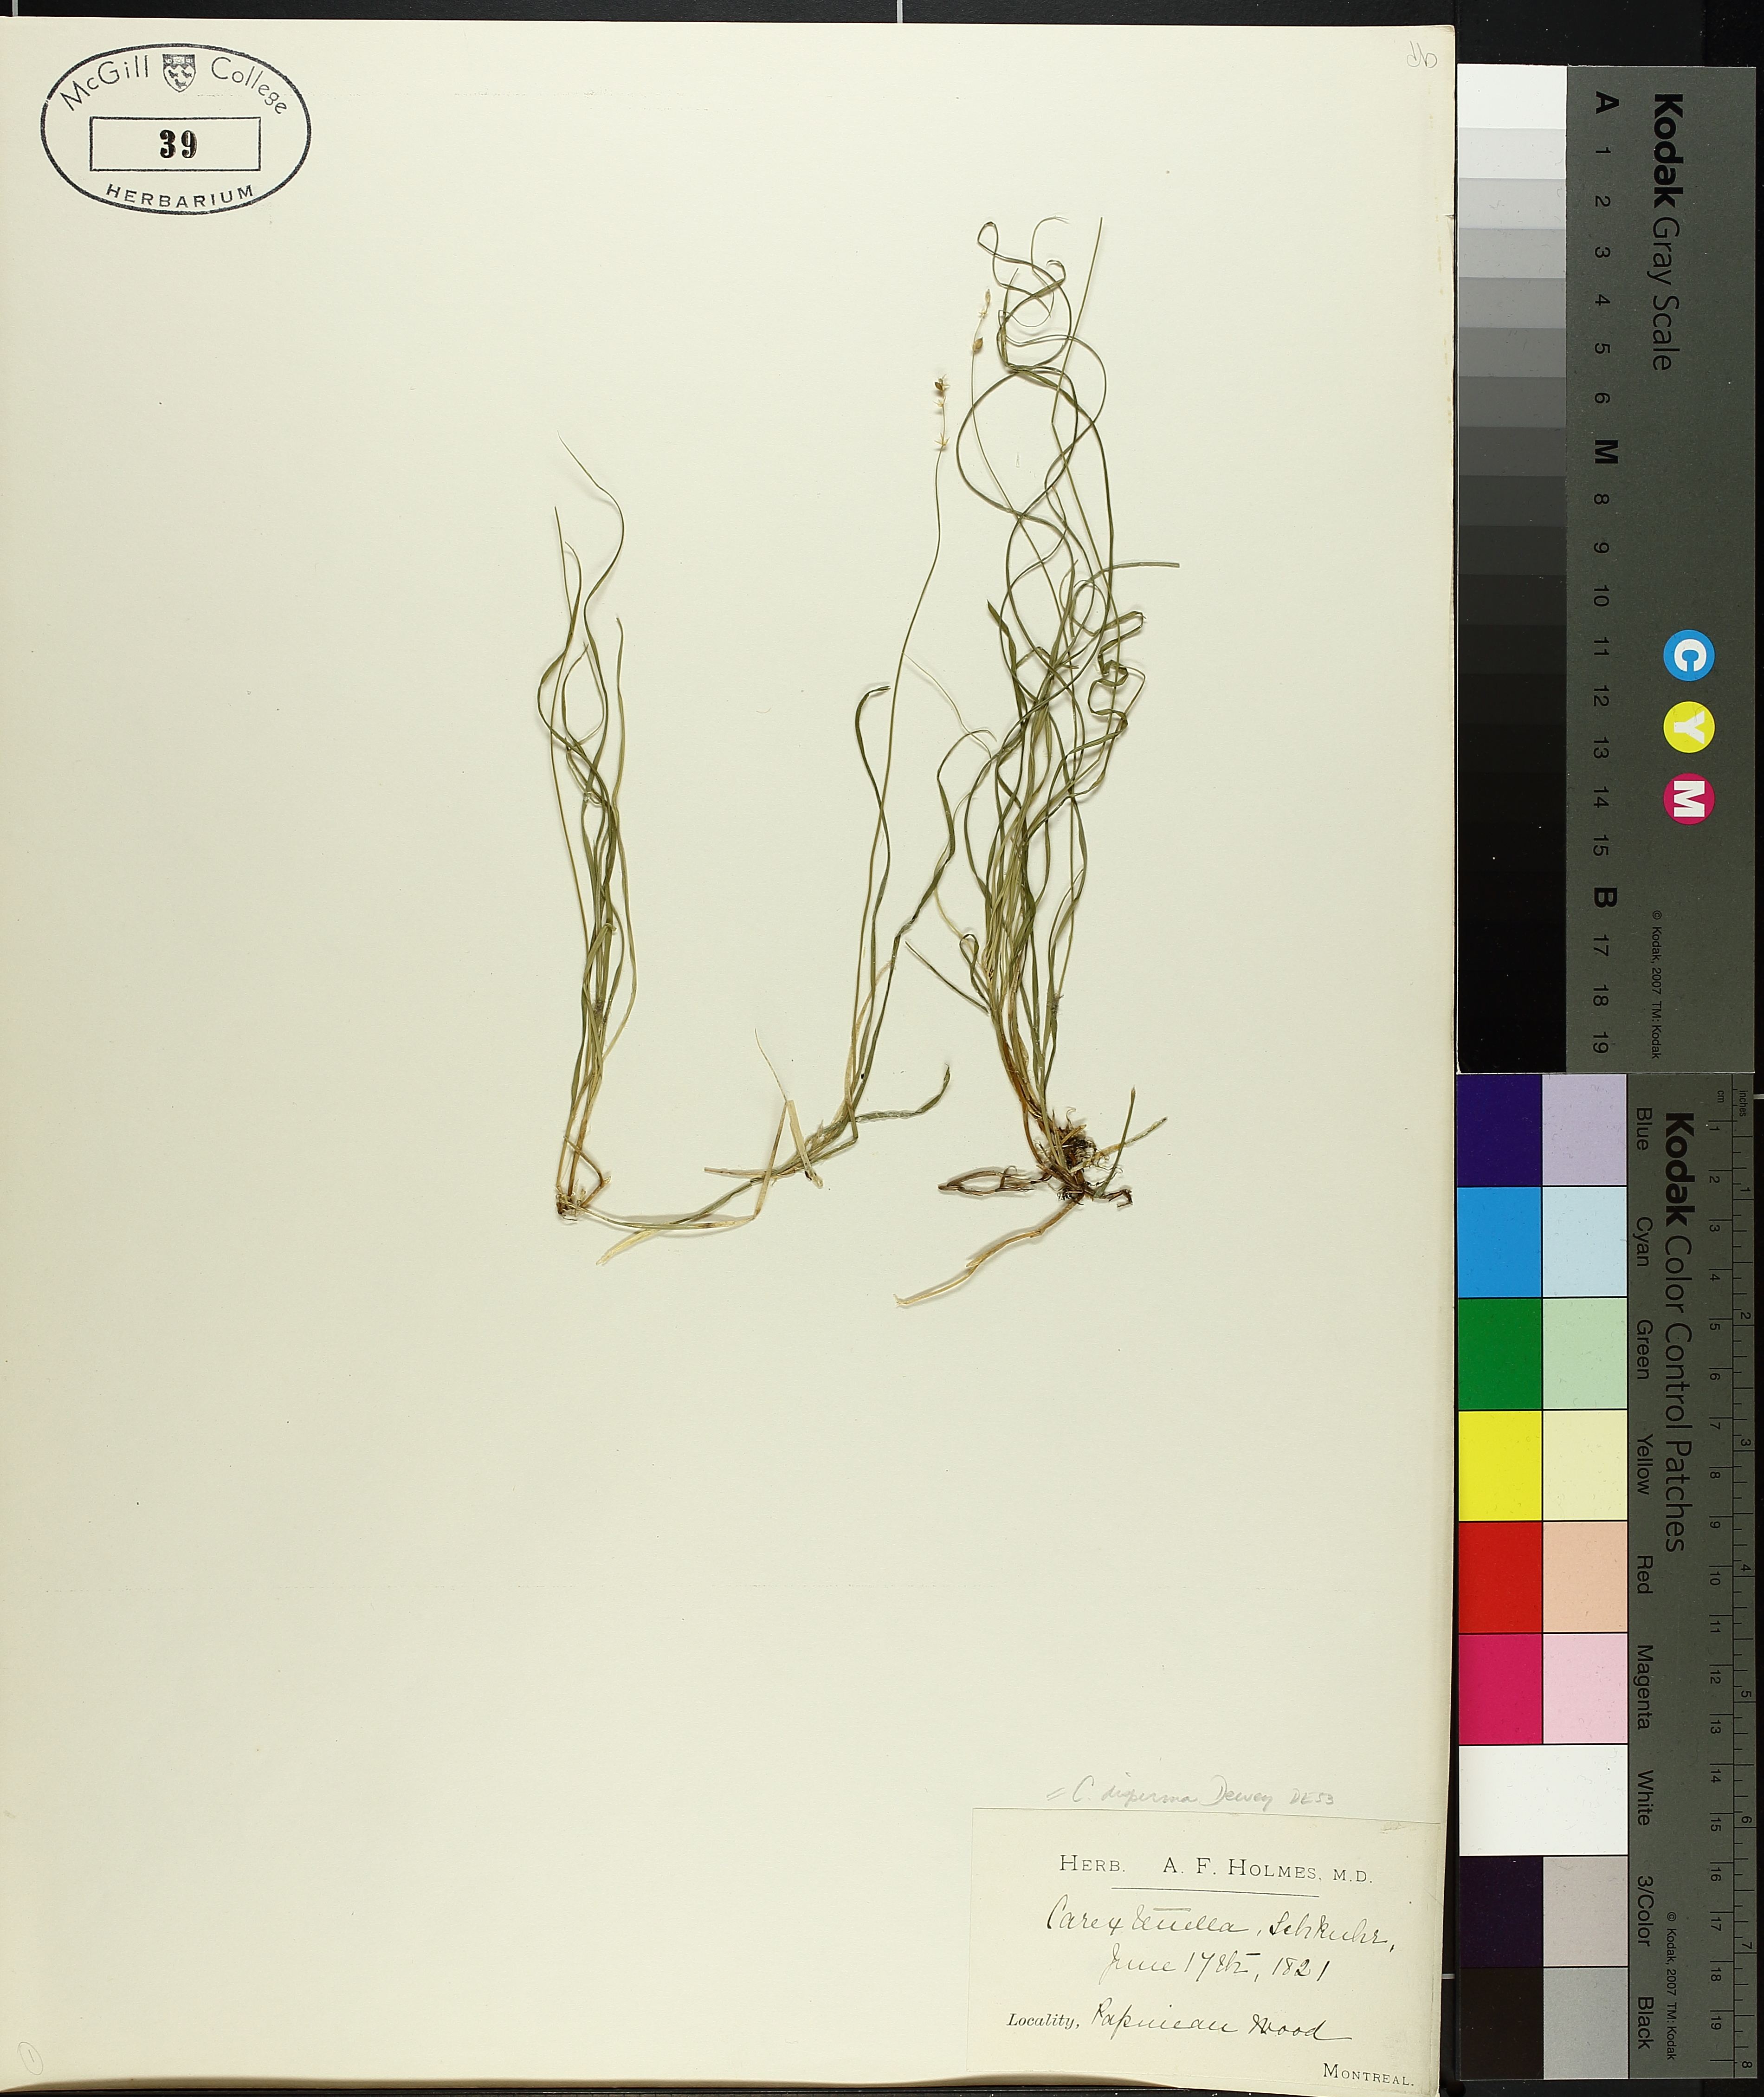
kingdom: Plantae
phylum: Tracheophyta
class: Liliopsida
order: Poales
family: Cyperaceae
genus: Carex
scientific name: Carex disperma
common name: Short-leaved sedge
